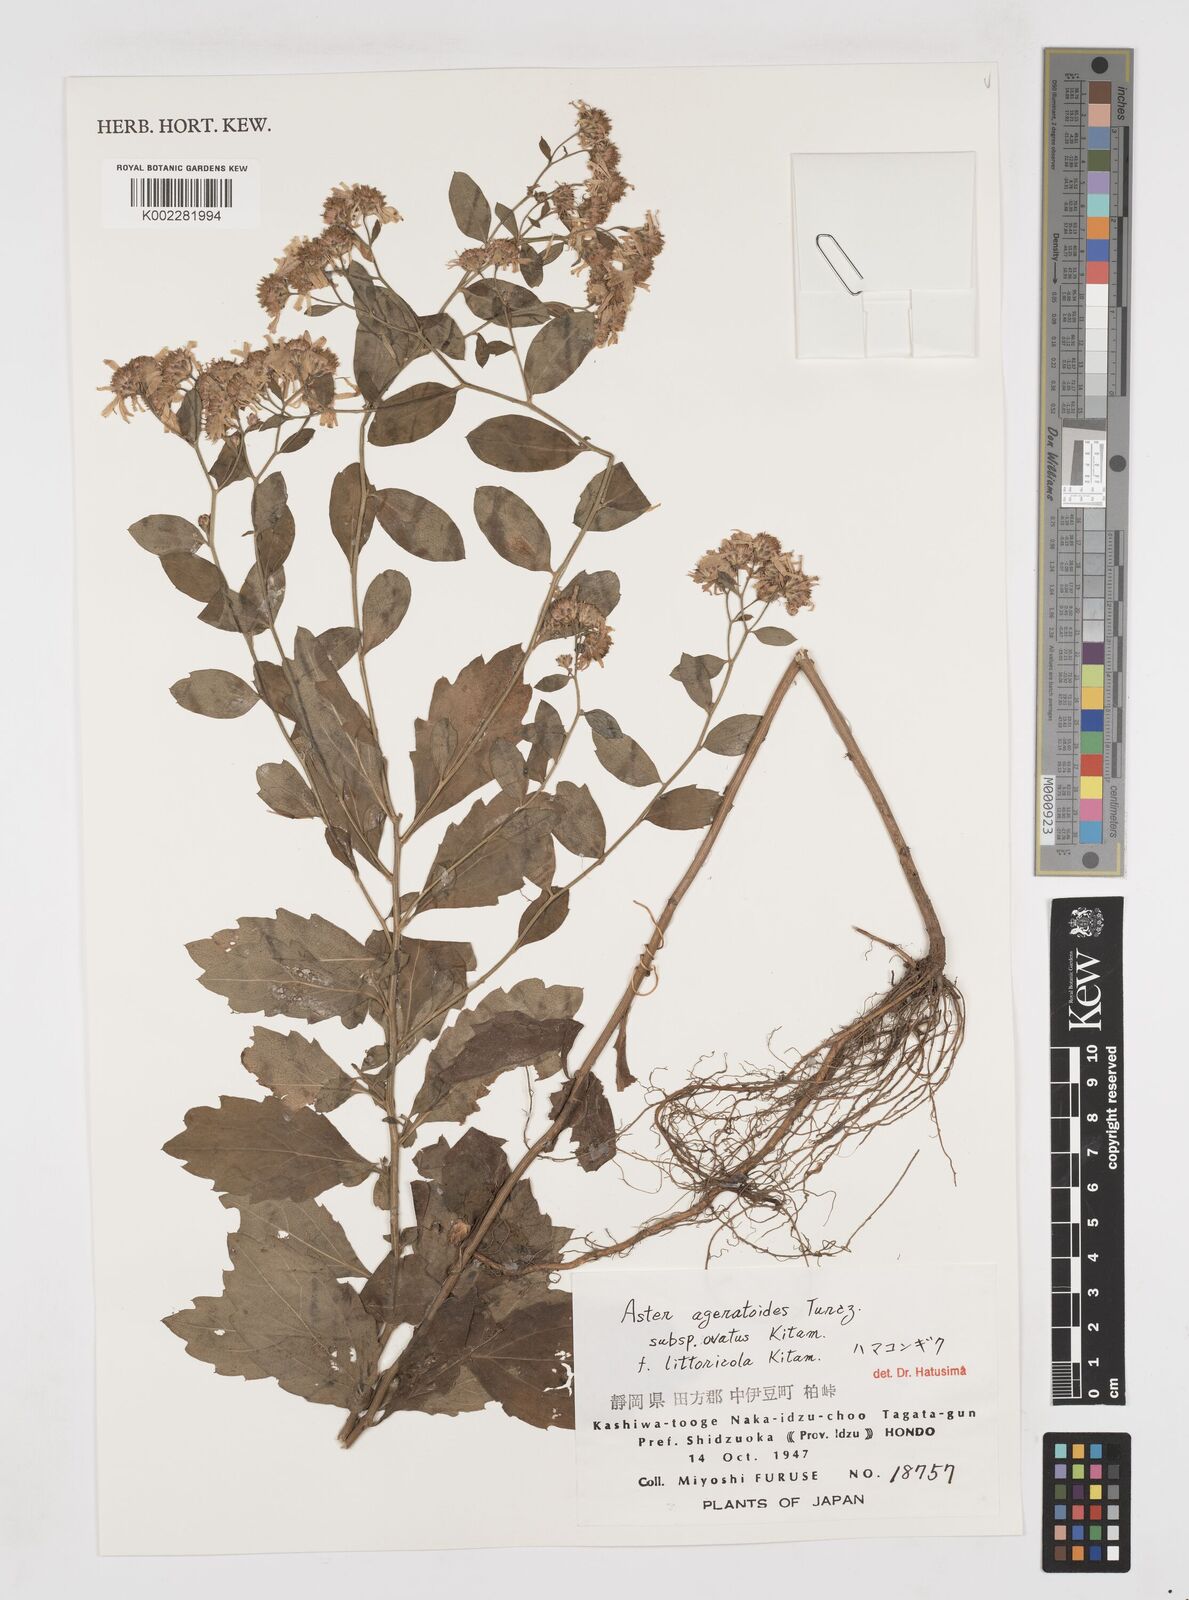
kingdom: Plantae
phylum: Tracheophyta
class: Magnoliopsida
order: Asterales
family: Asteraceae
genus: Galatella
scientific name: Galatella sedifolia
